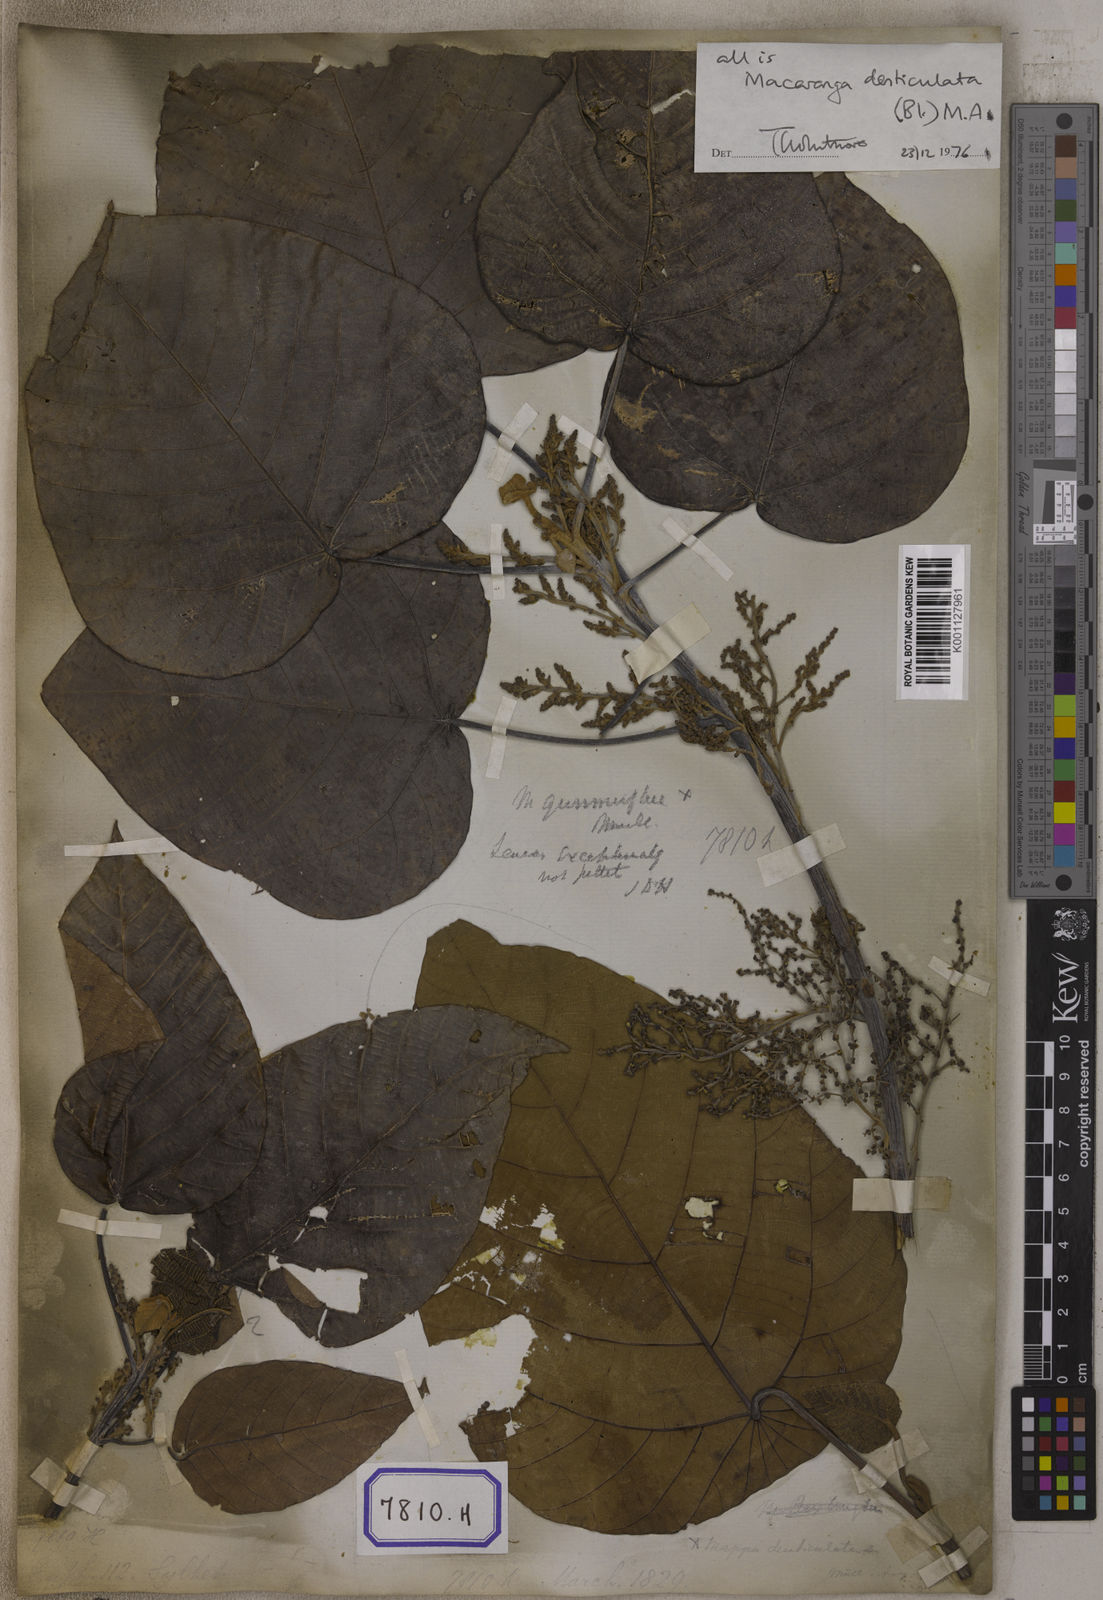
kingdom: Plantae
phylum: Tracheophyta
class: Magnoliopsida
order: Malpighiales
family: Euphorbiaceae
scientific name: Euphorbiaceae
